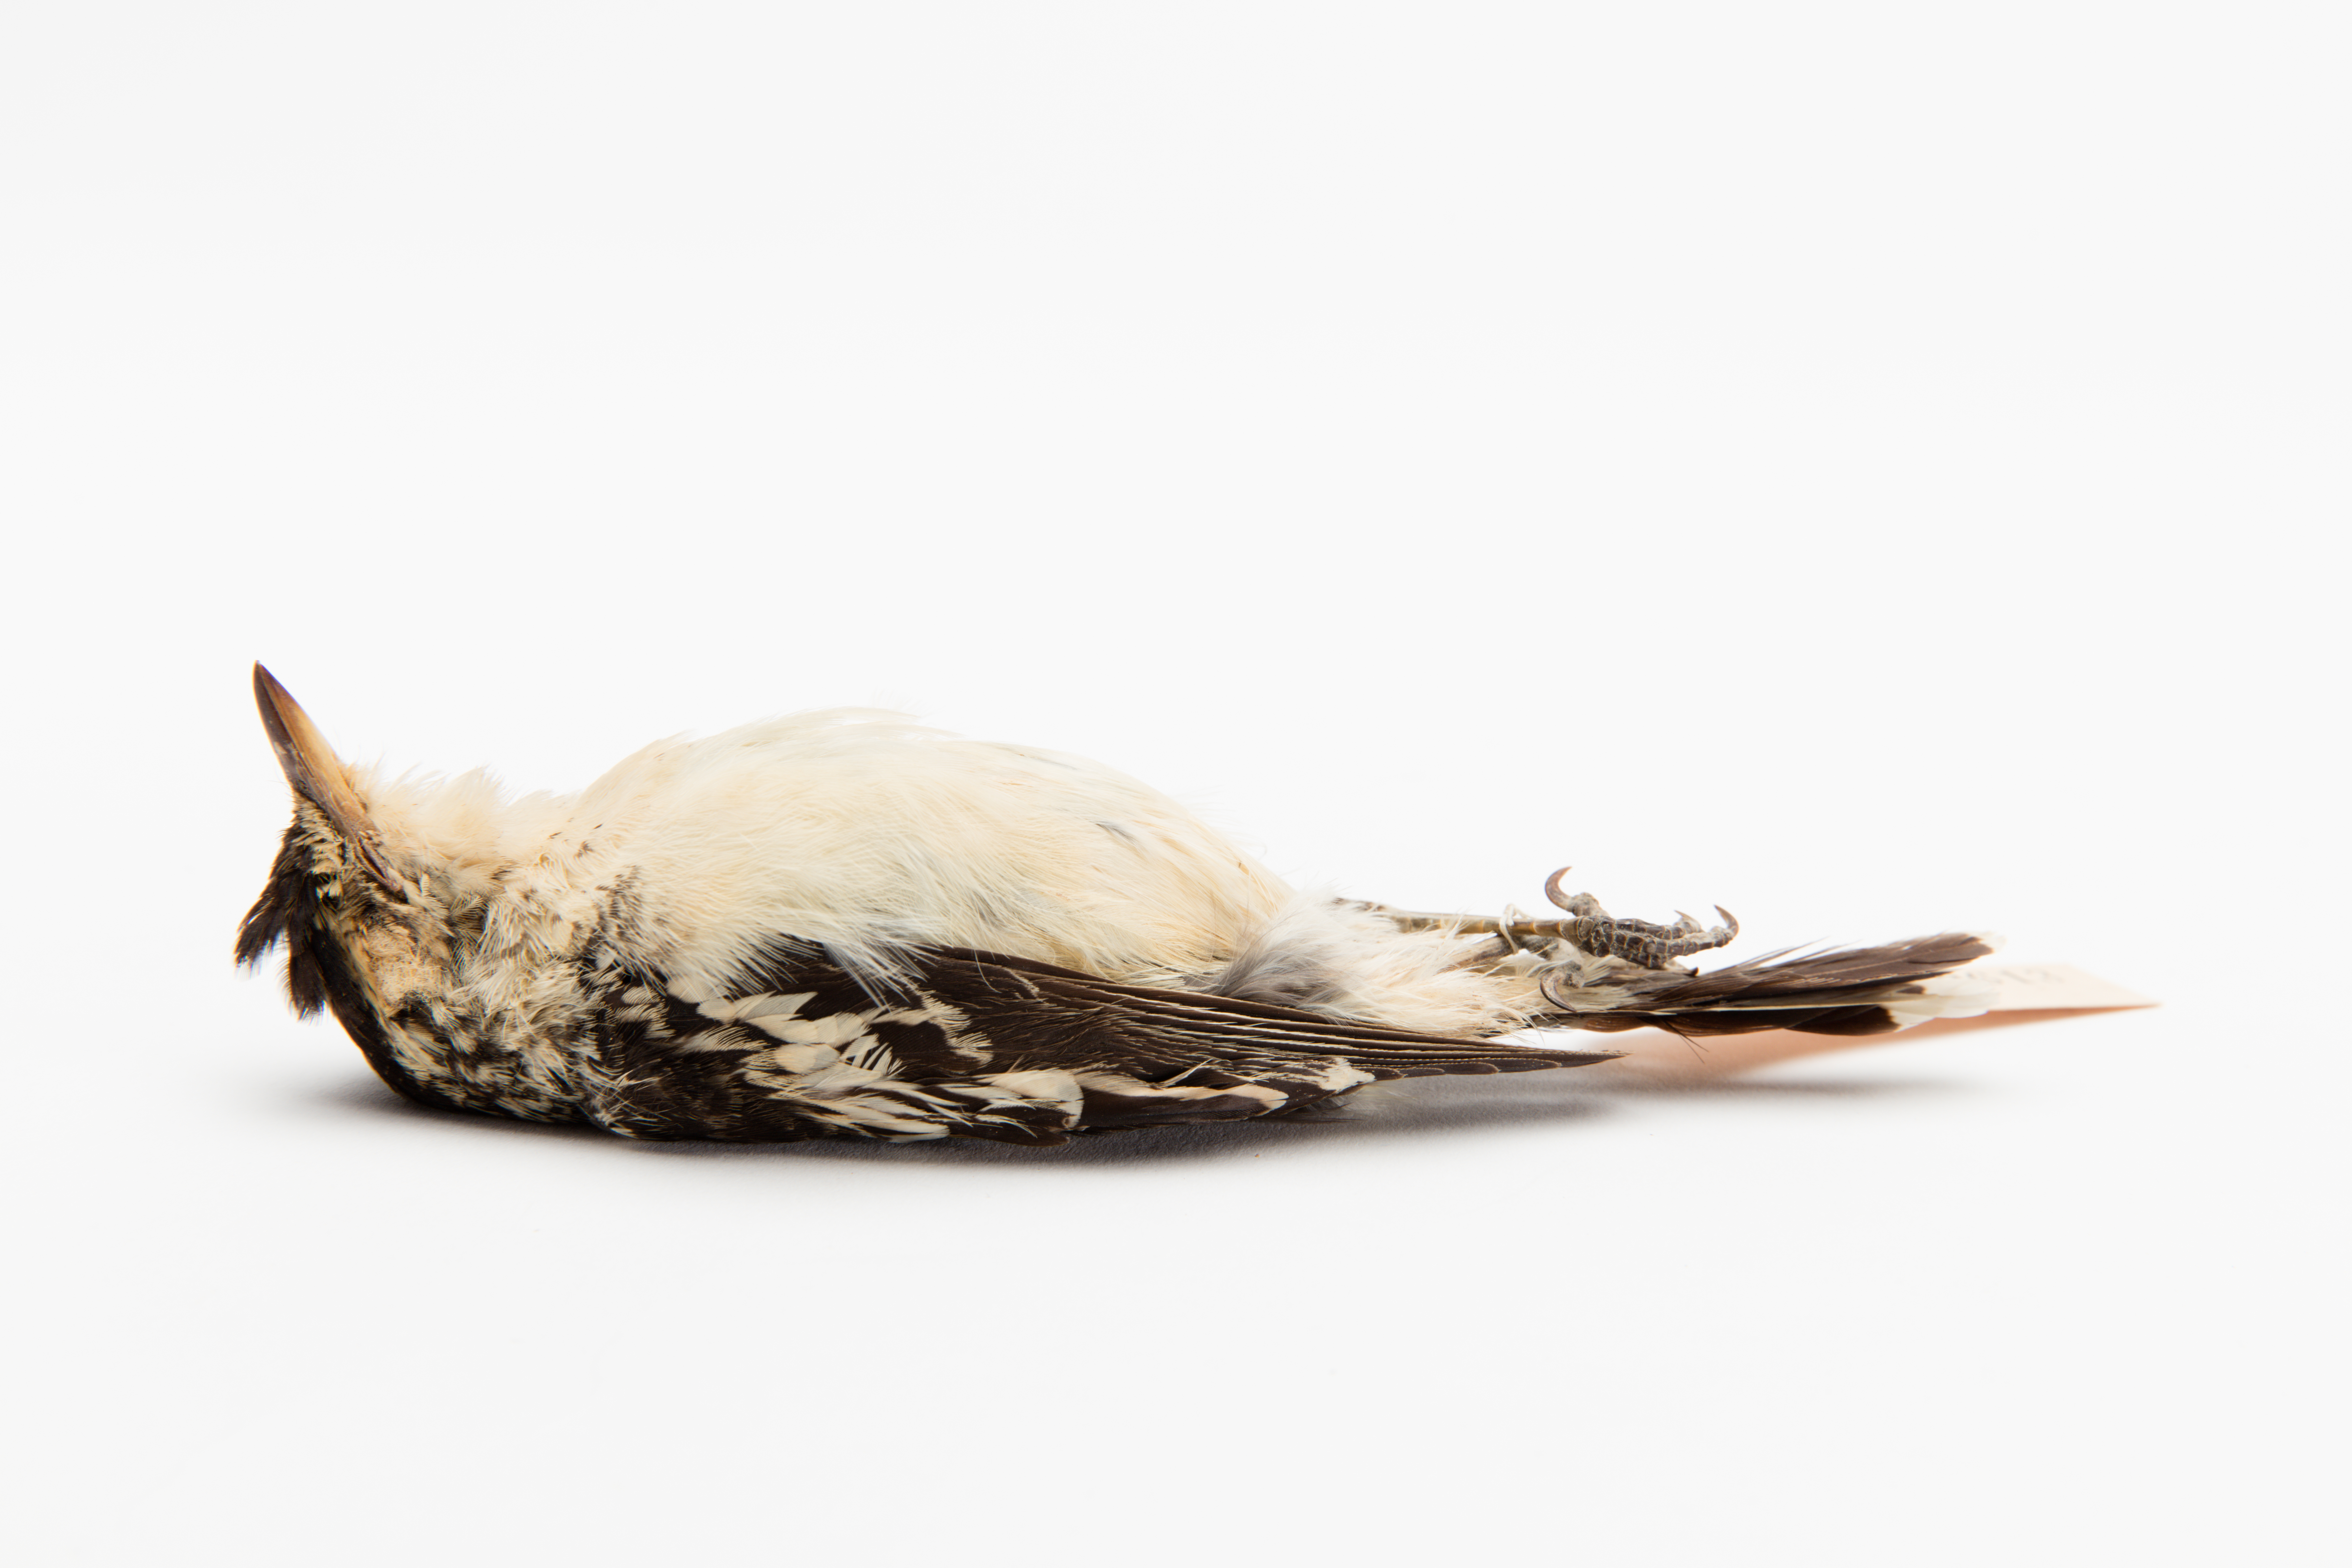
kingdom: Animalia
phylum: Chordata
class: Aves
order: Passeriformes
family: Campephagidae
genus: Lalage
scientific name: Lalage maculosa
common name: Polynesian triller
